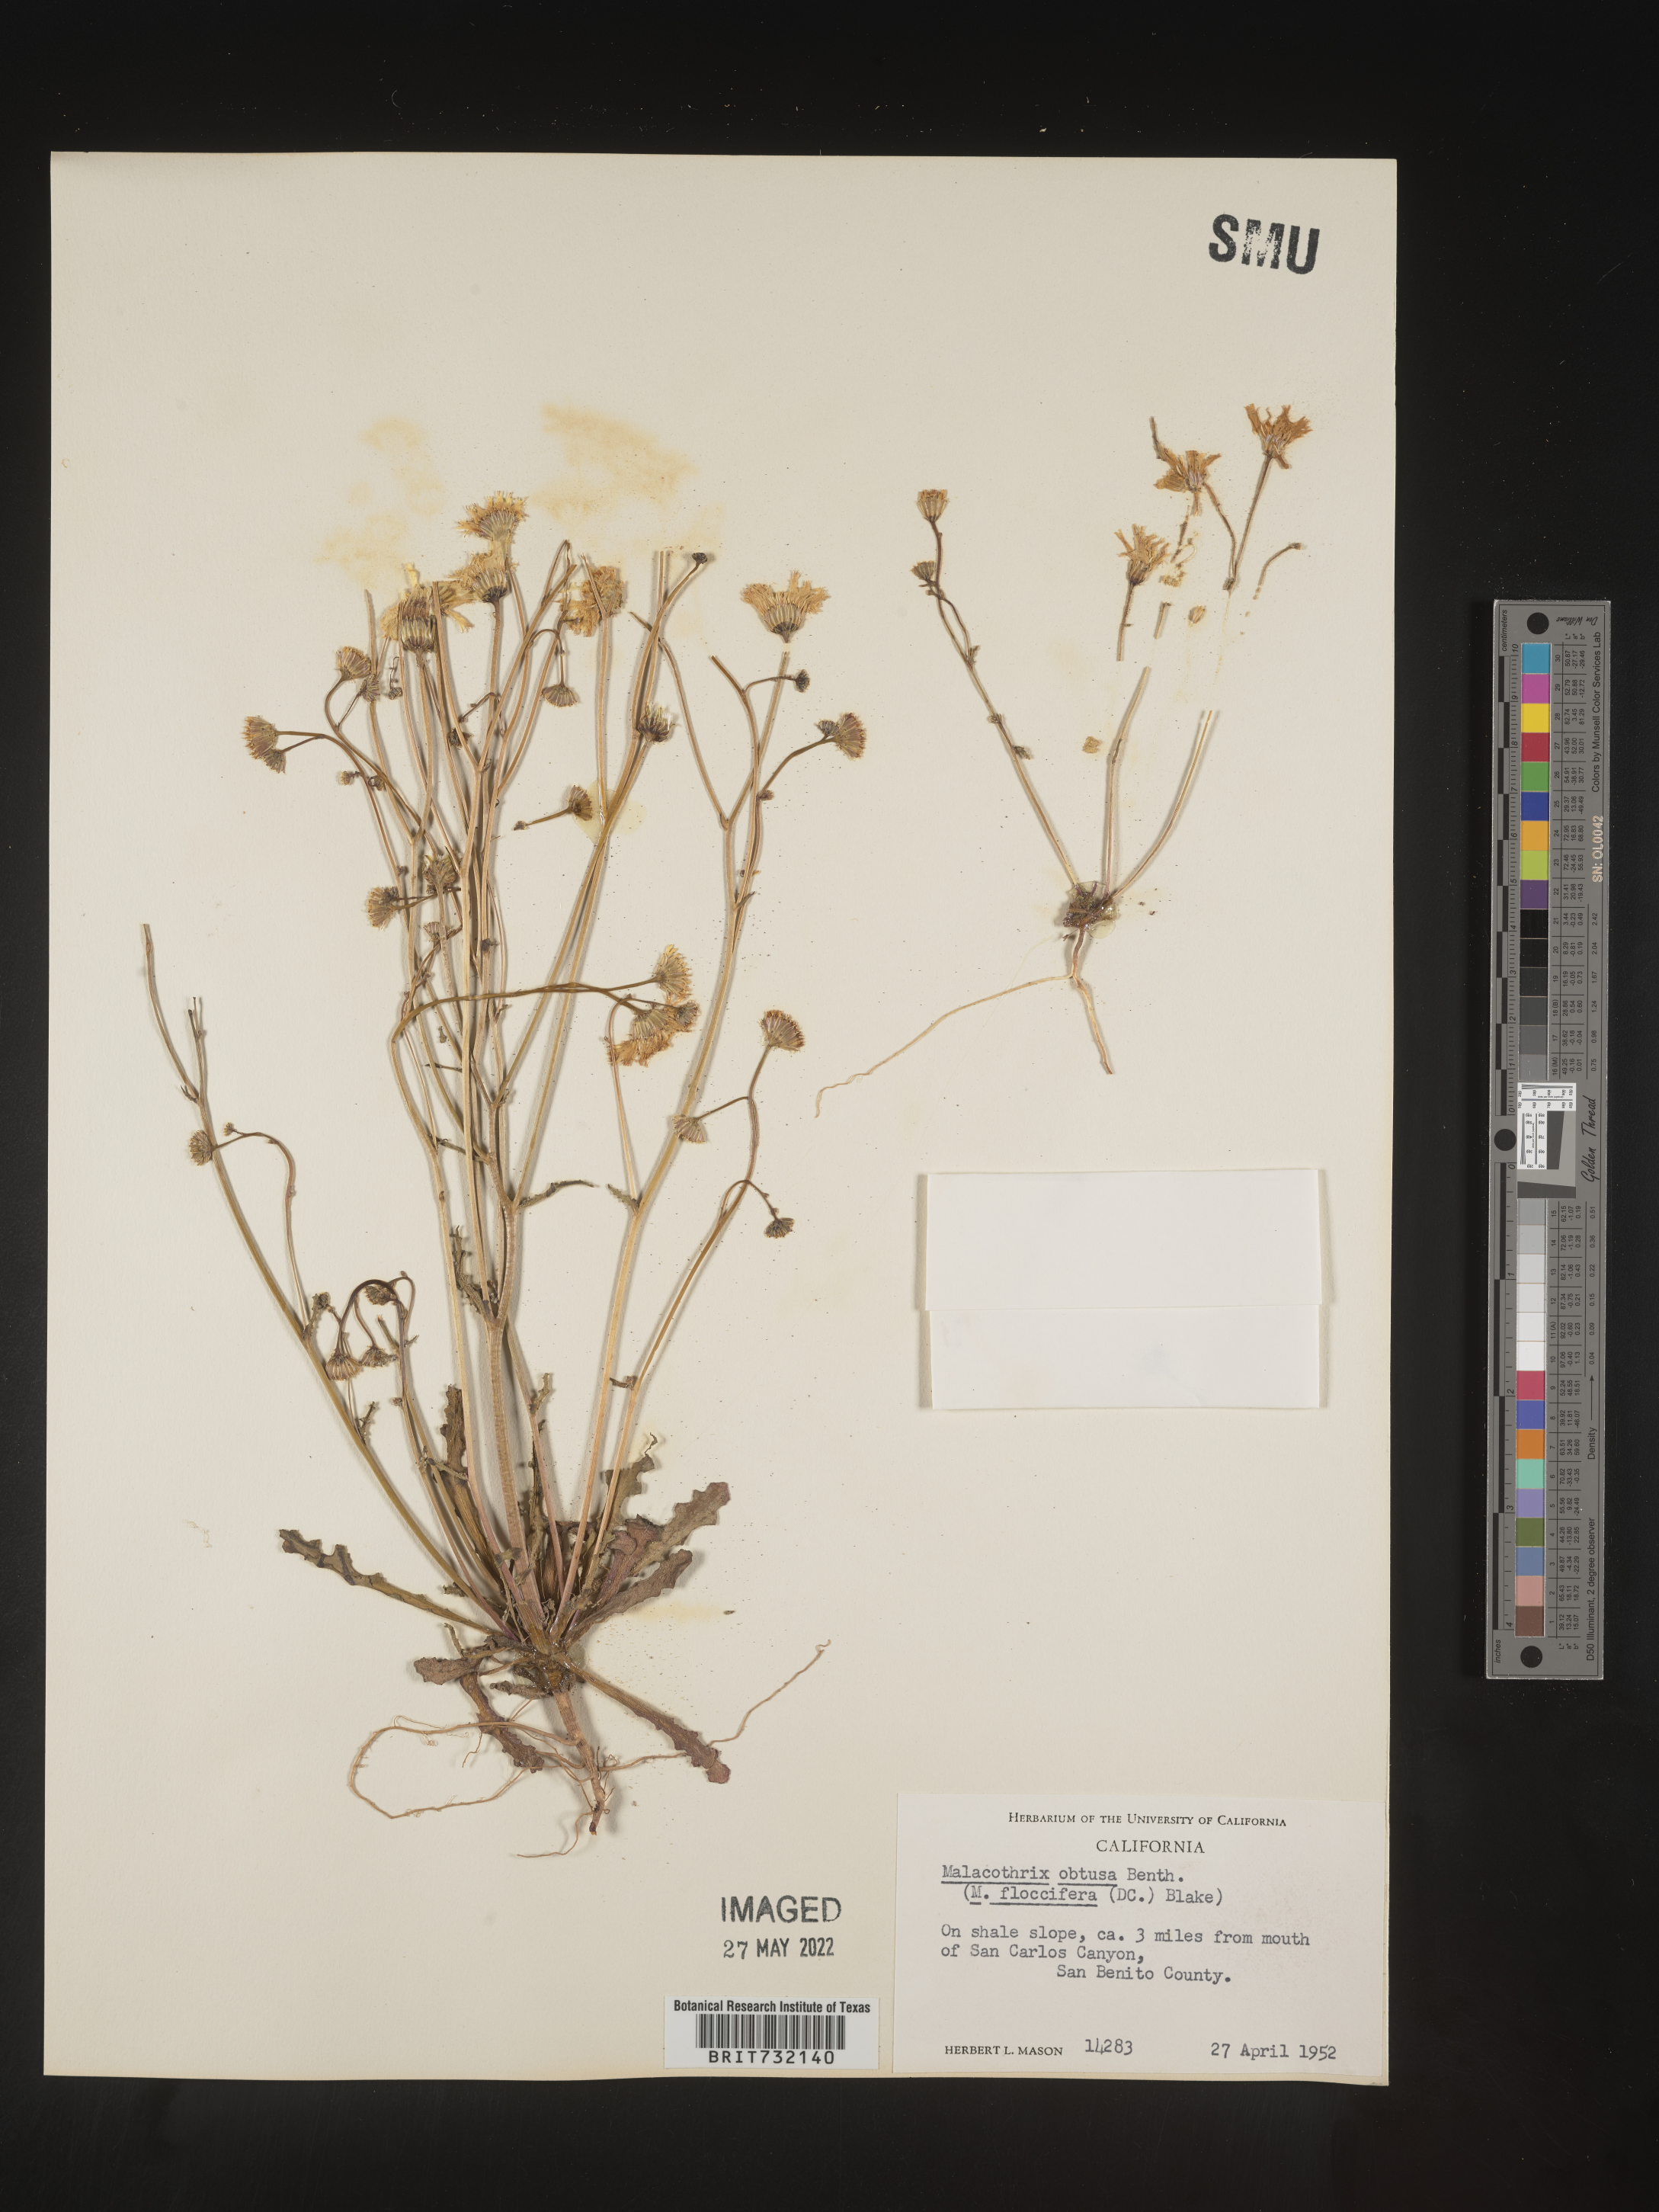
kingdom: Plantae
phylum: Tracheophyta
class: Magnoliopsida
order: Asterales
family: Asteraceae
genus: Malacothrix
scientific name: Malacothrix floccifera
